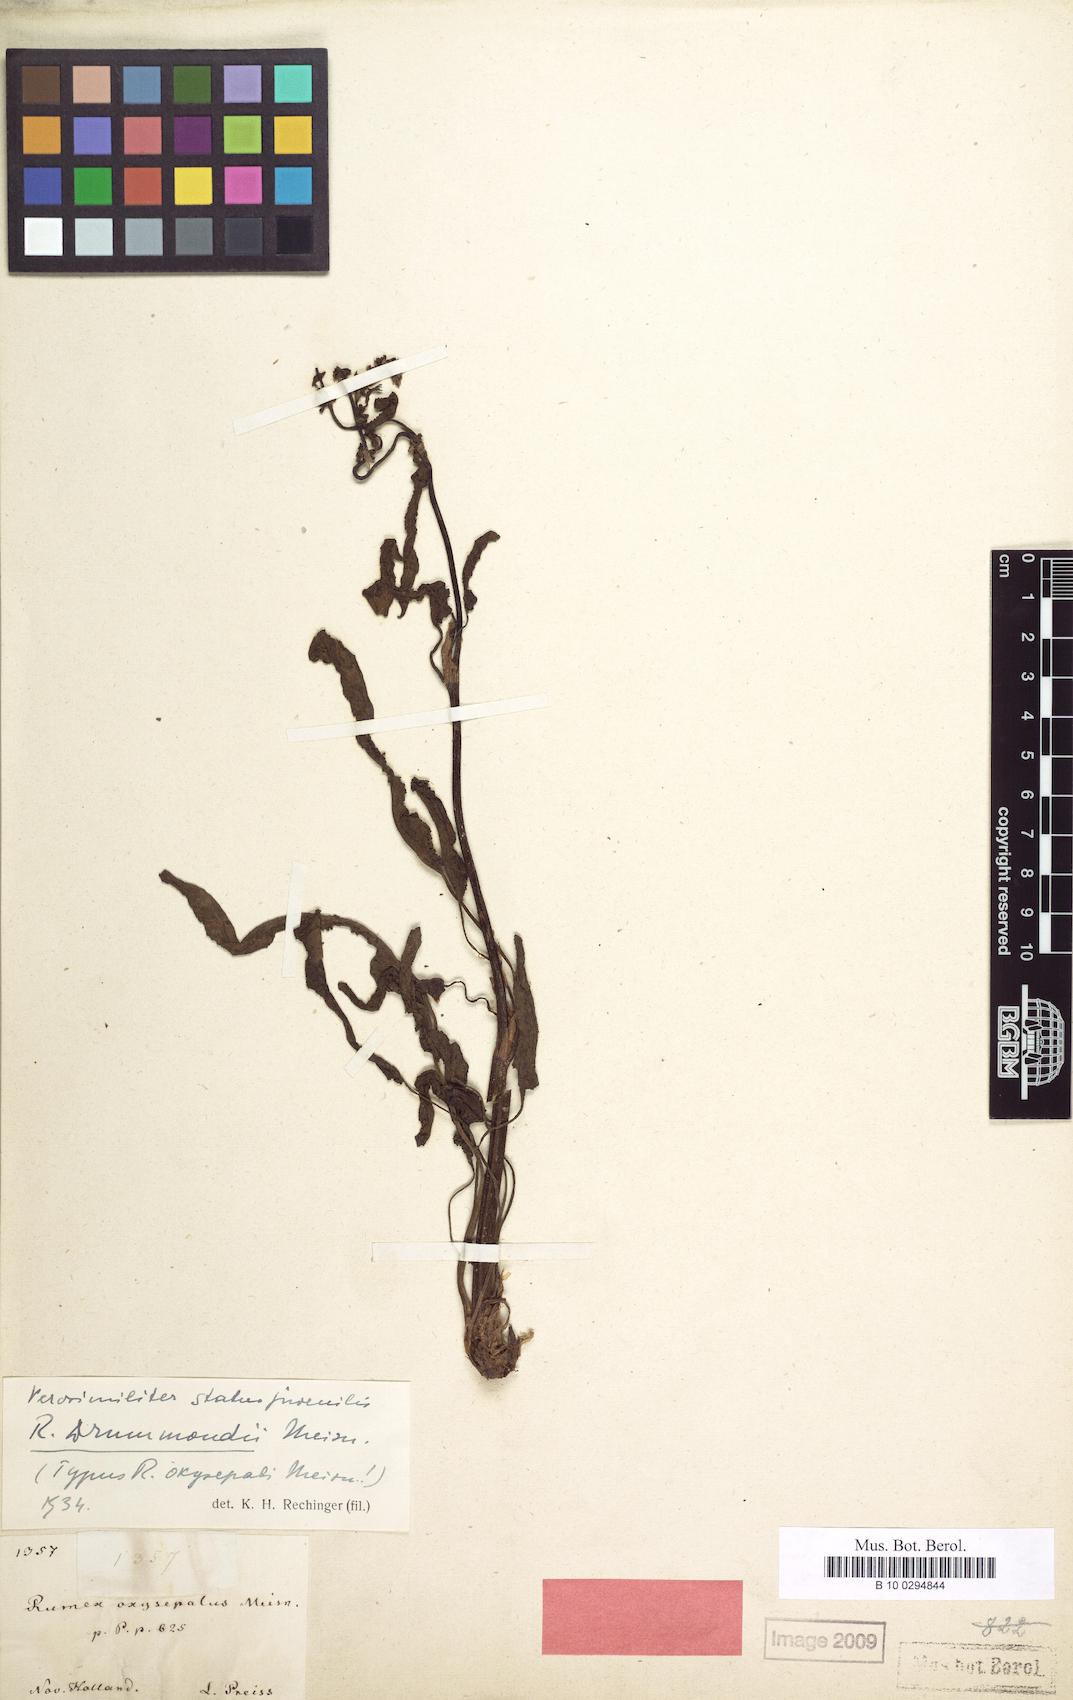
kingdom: Plantae
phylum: Tracheophyta
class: Magnoliopsida
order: Caryophyllales
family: Polygonaceae
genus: Rumex
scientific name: Rumex drummondii
